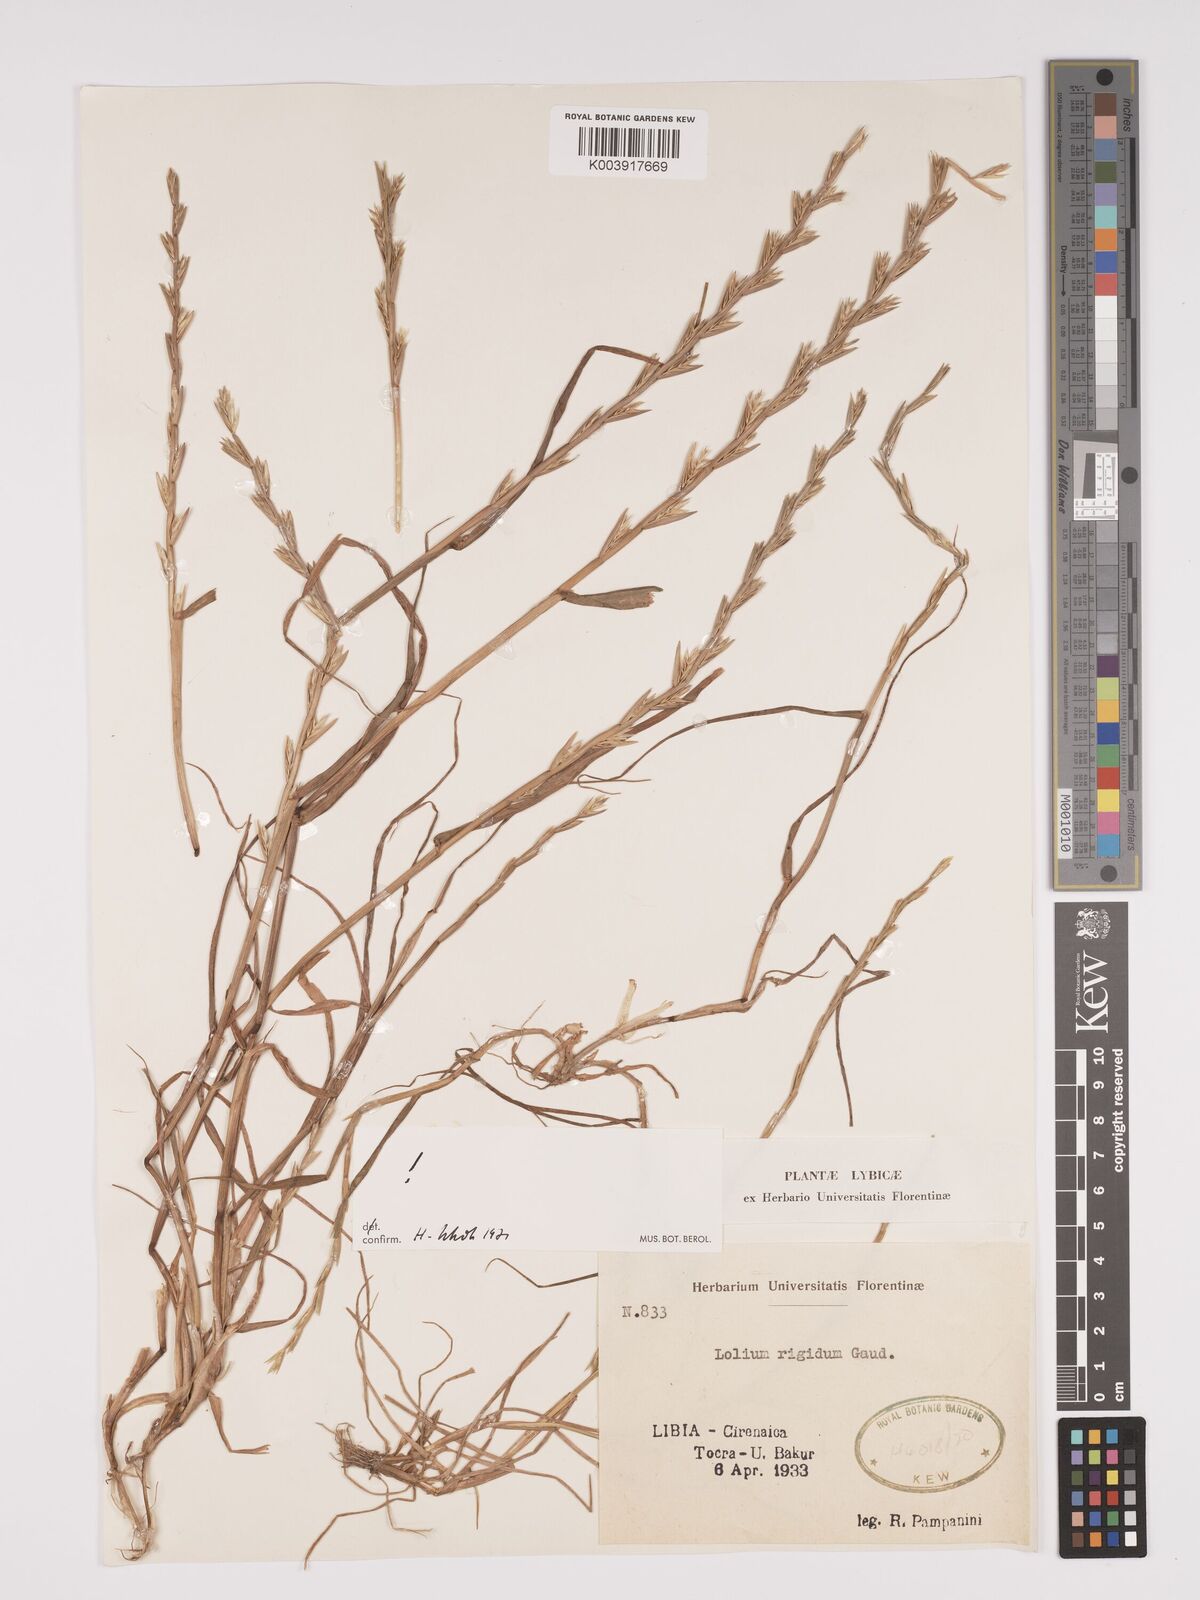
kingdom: Plantae
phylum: Tracheophyta
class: Liliopsida
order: Poales
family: Poaceae
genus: Lolium
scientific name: Lolium rigidum
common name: Wimmera ryegrass
